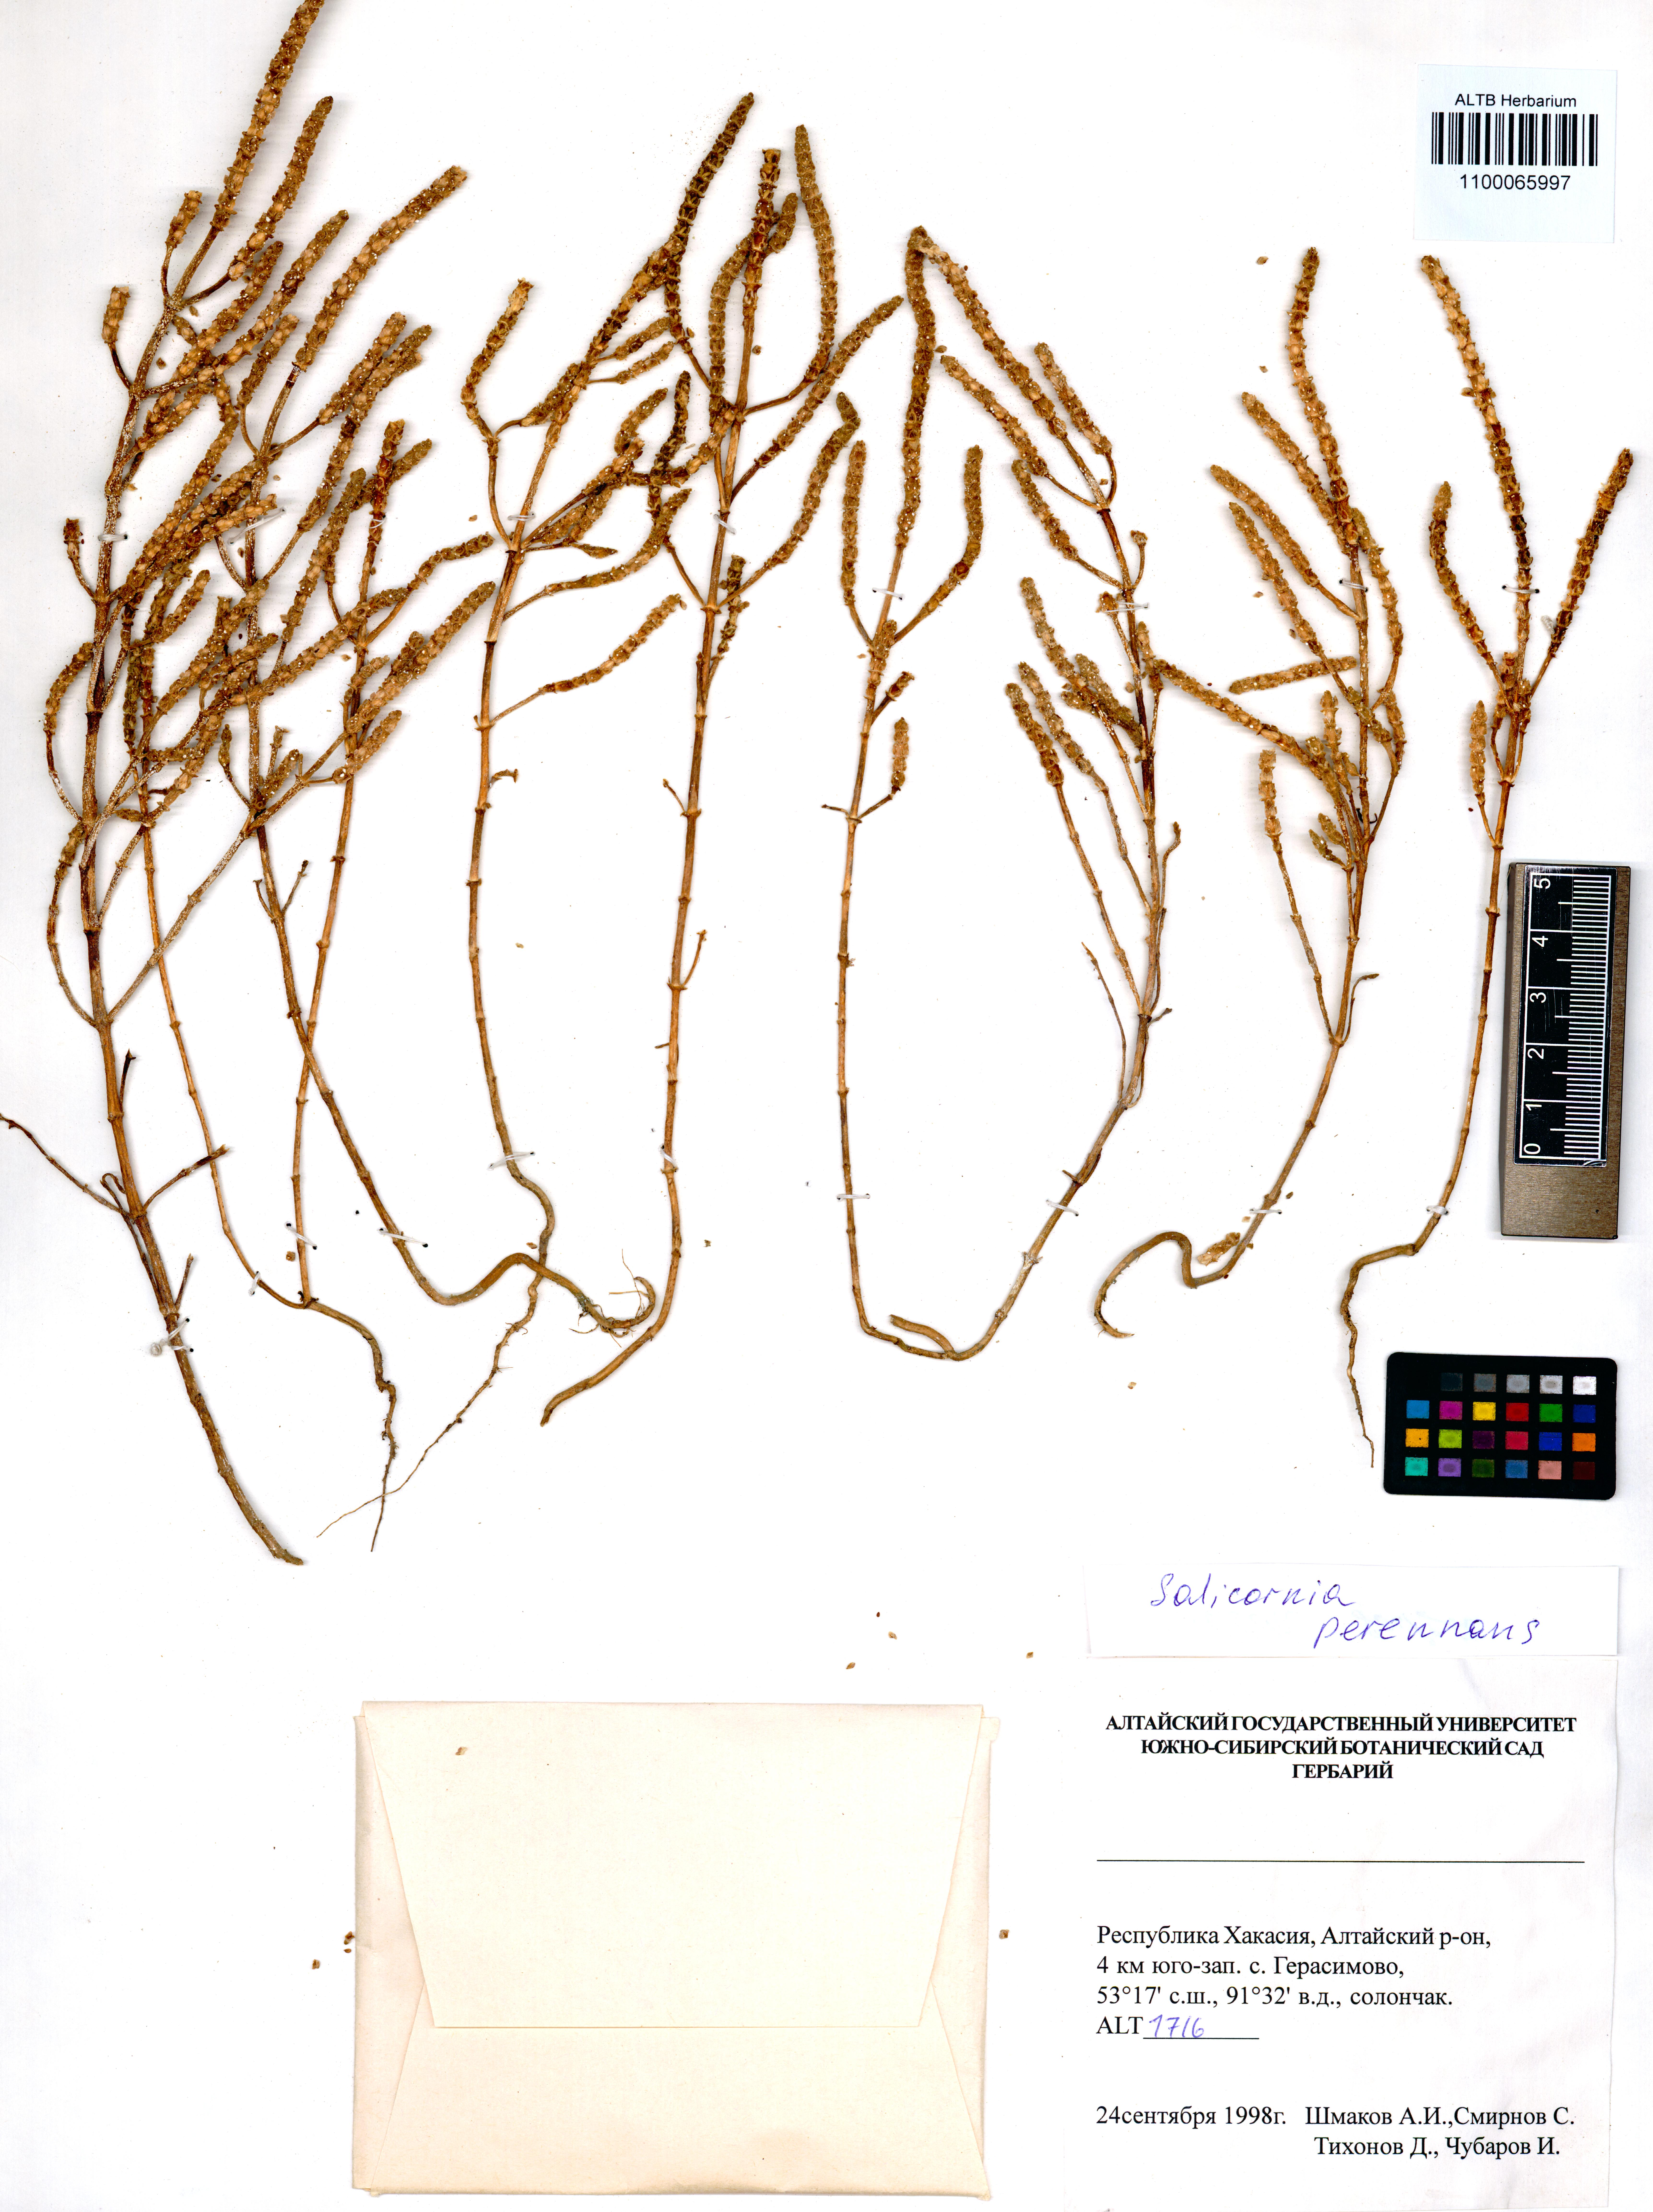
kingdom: Plantae
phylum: Tracheophyta
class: Magnoliopsida
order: Caryophyllales
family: Amaranthaceae
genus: Salicornia
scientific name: Salicornia perennans
